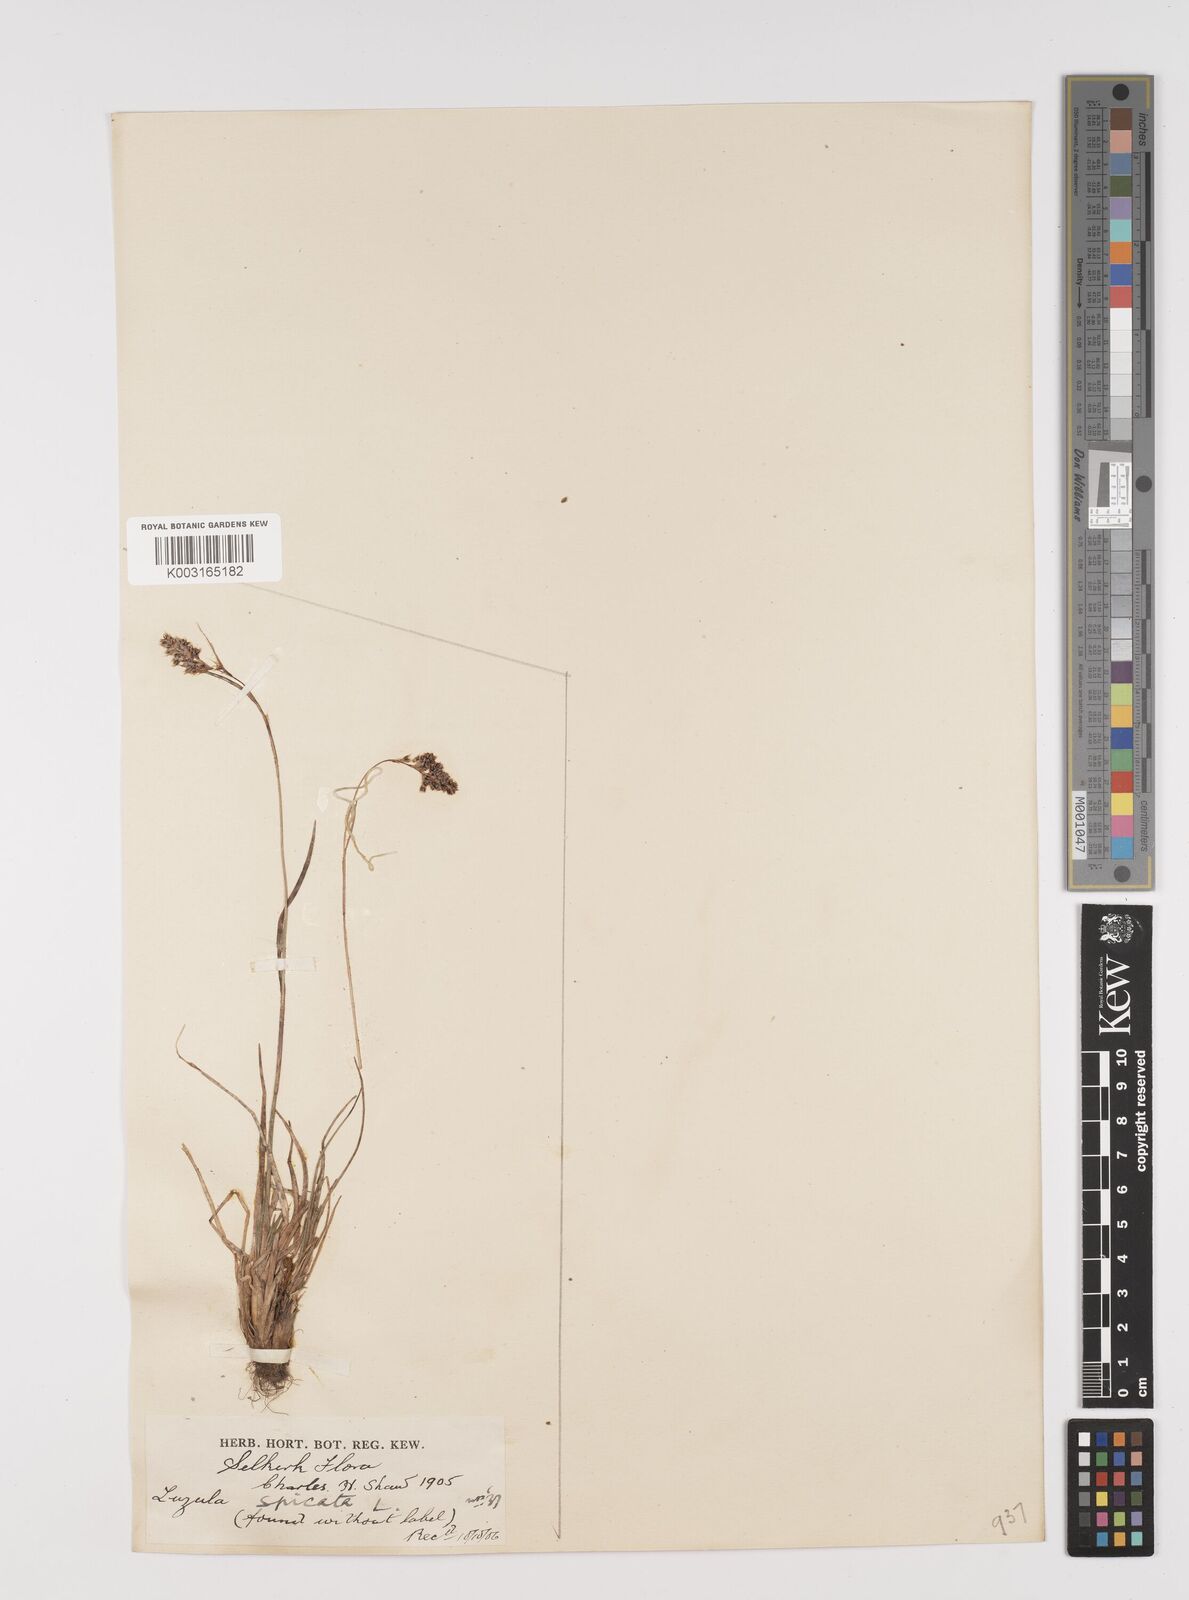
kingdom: Plantae
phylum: Tracheophyta
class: Liliopsida
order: Poales
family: Juncaceae
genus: Luzula
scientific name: Luzula
